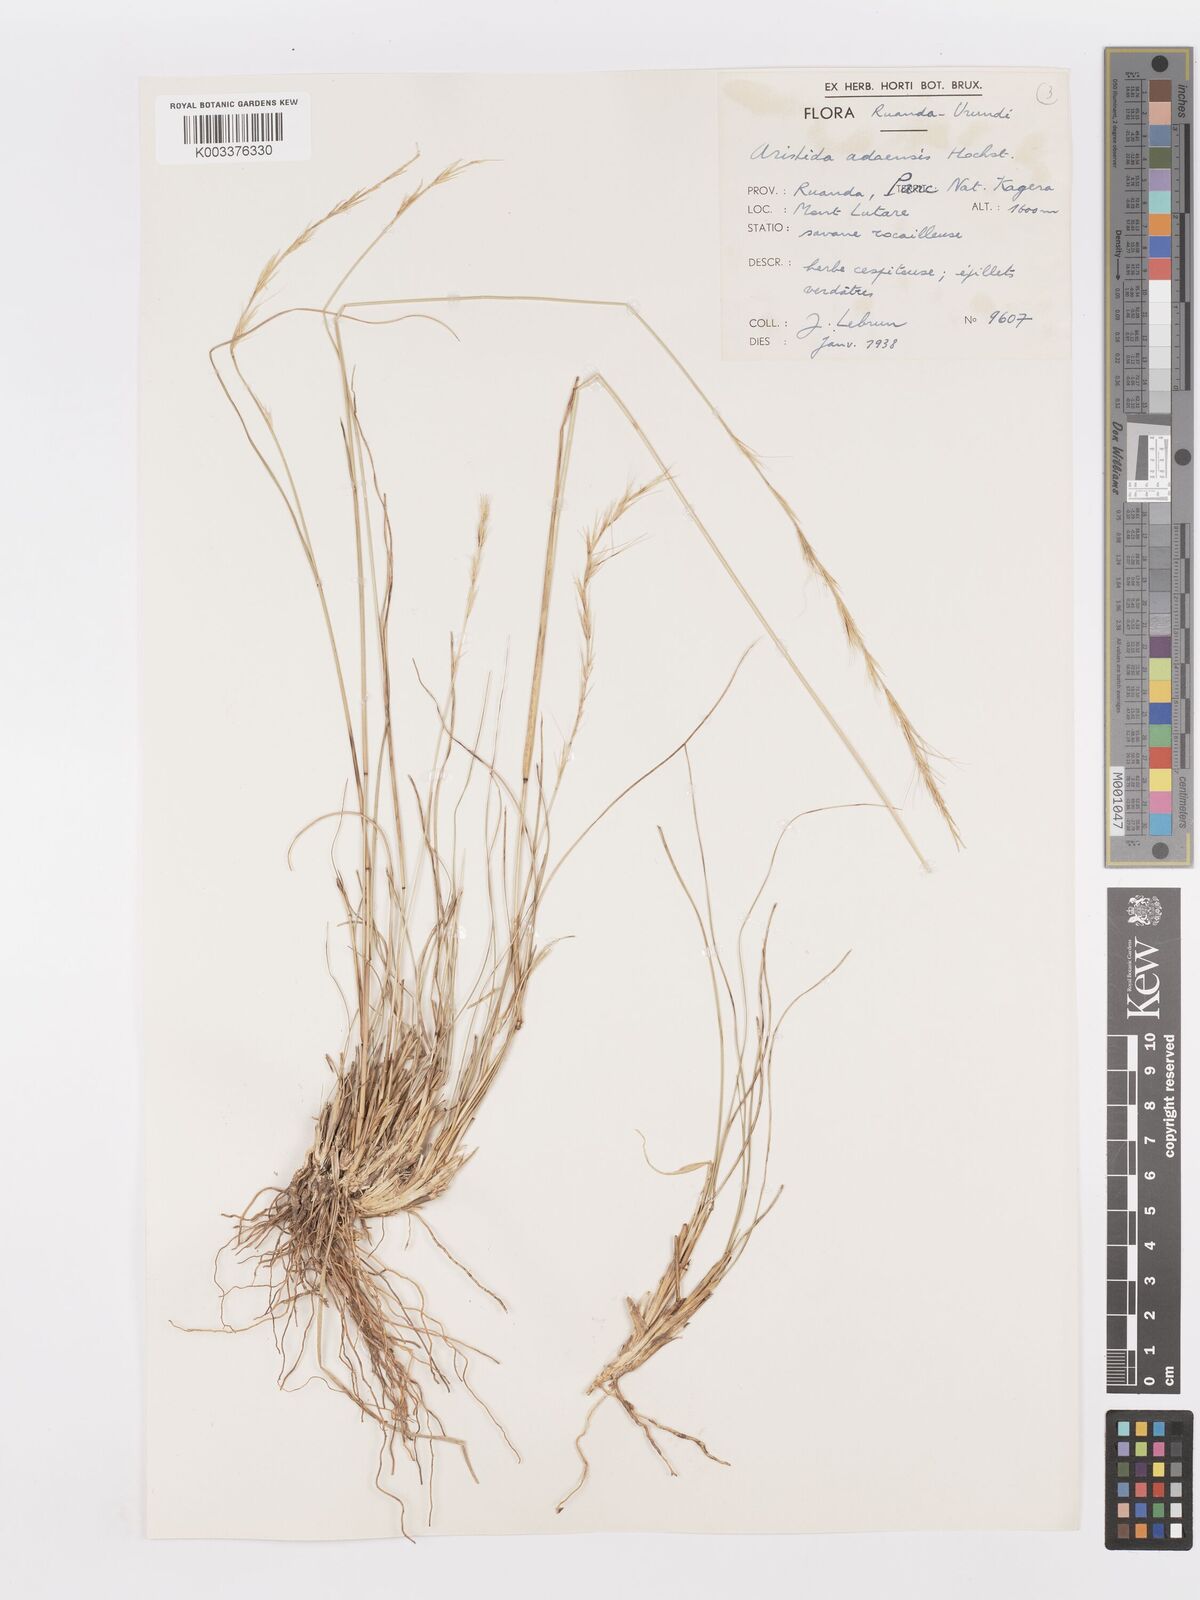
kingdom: Plantae
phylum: Tracheophyta
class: Liliopsida
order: Poales
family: Poaceae
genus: Aristida
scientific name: Aristida adoensis
